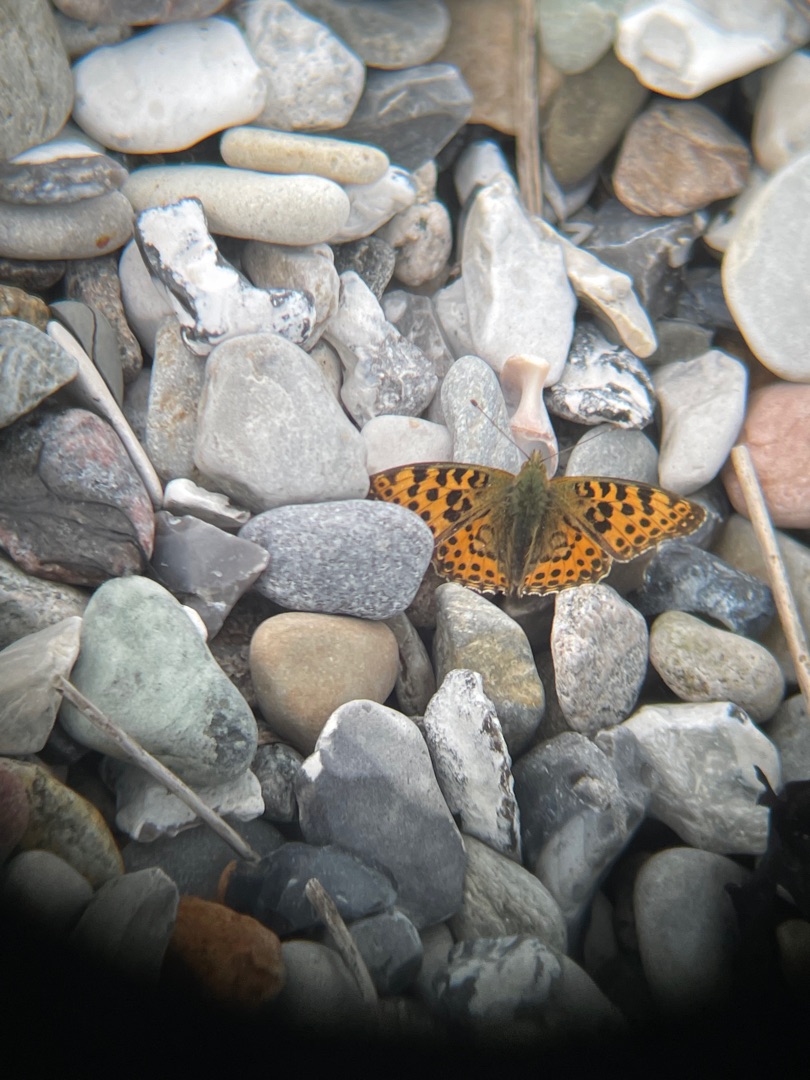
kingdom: Animalia
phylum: Arthropoda
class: Insecta
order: Lepidoptera
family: Nymphalidae
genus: Issoria
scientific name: Issoria lathonia
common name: Storplettet perlemorsommerfugl
